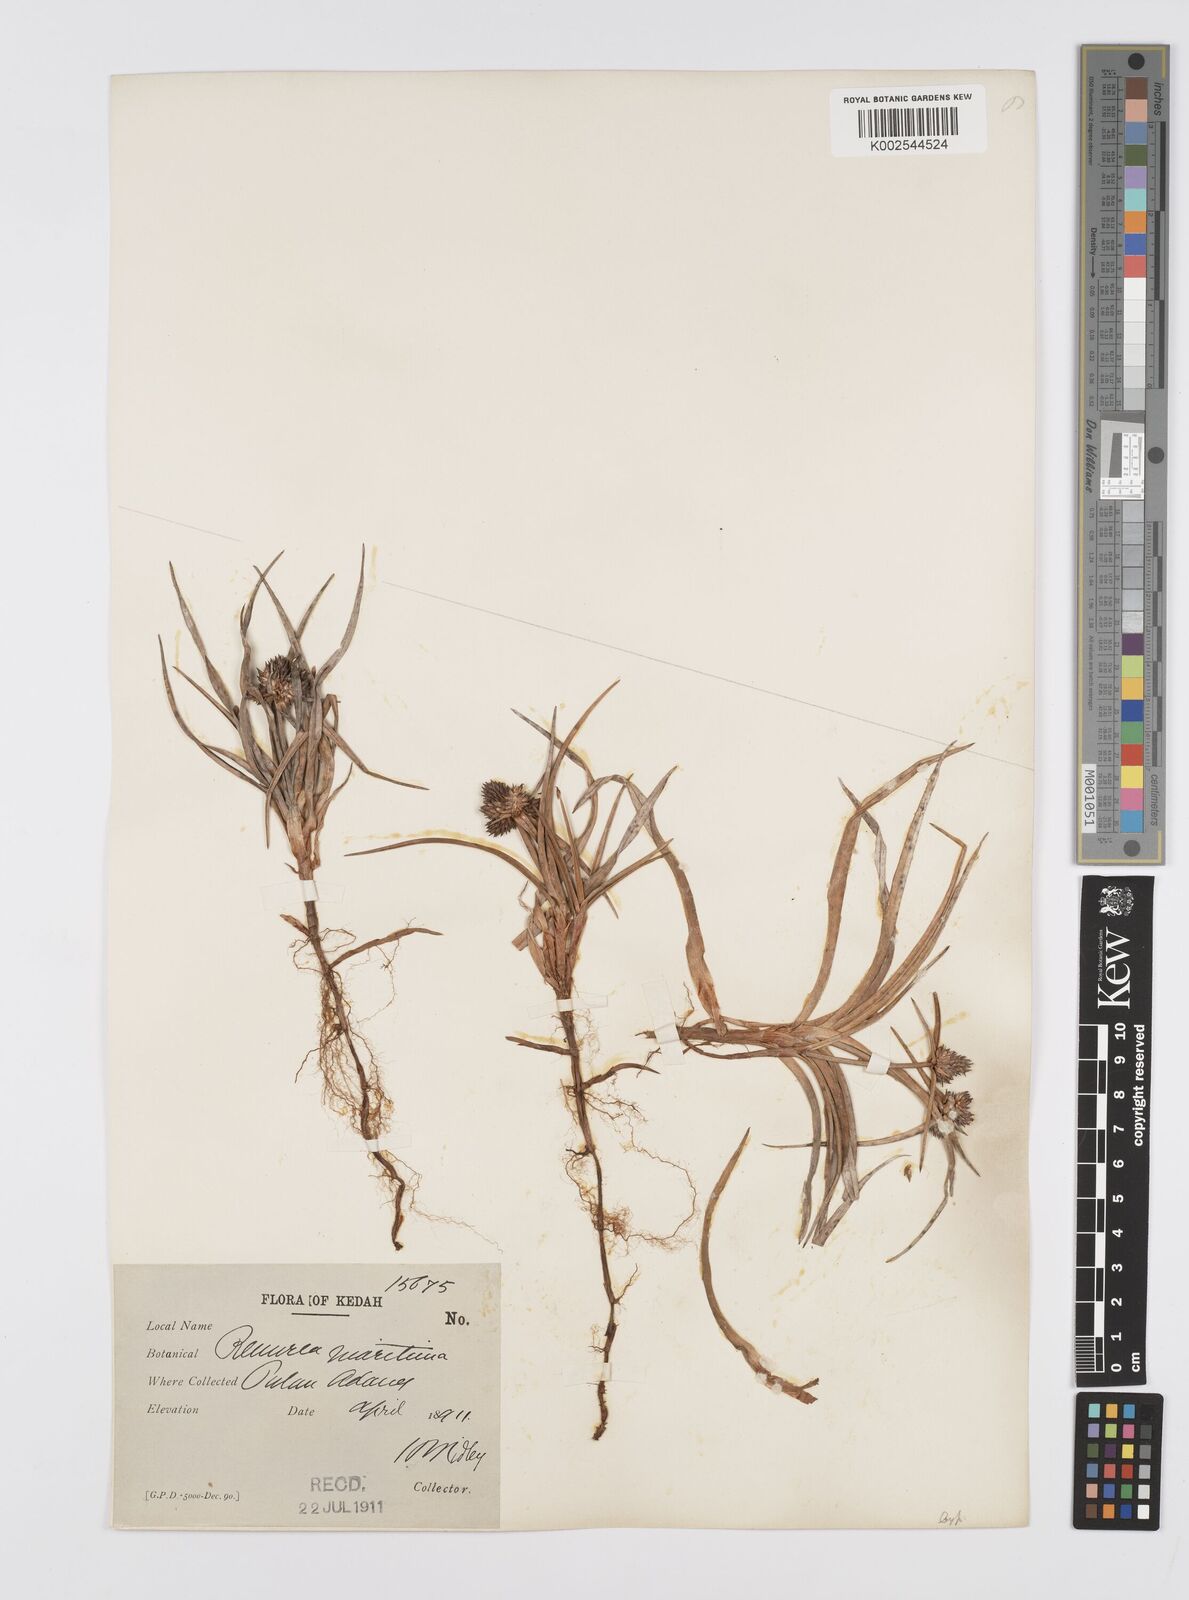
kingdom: Plantae
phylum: Tracheophyta
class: Liliopsida
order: Poales
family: Cyperaceae
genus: Cyperus
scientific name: Cyperus
